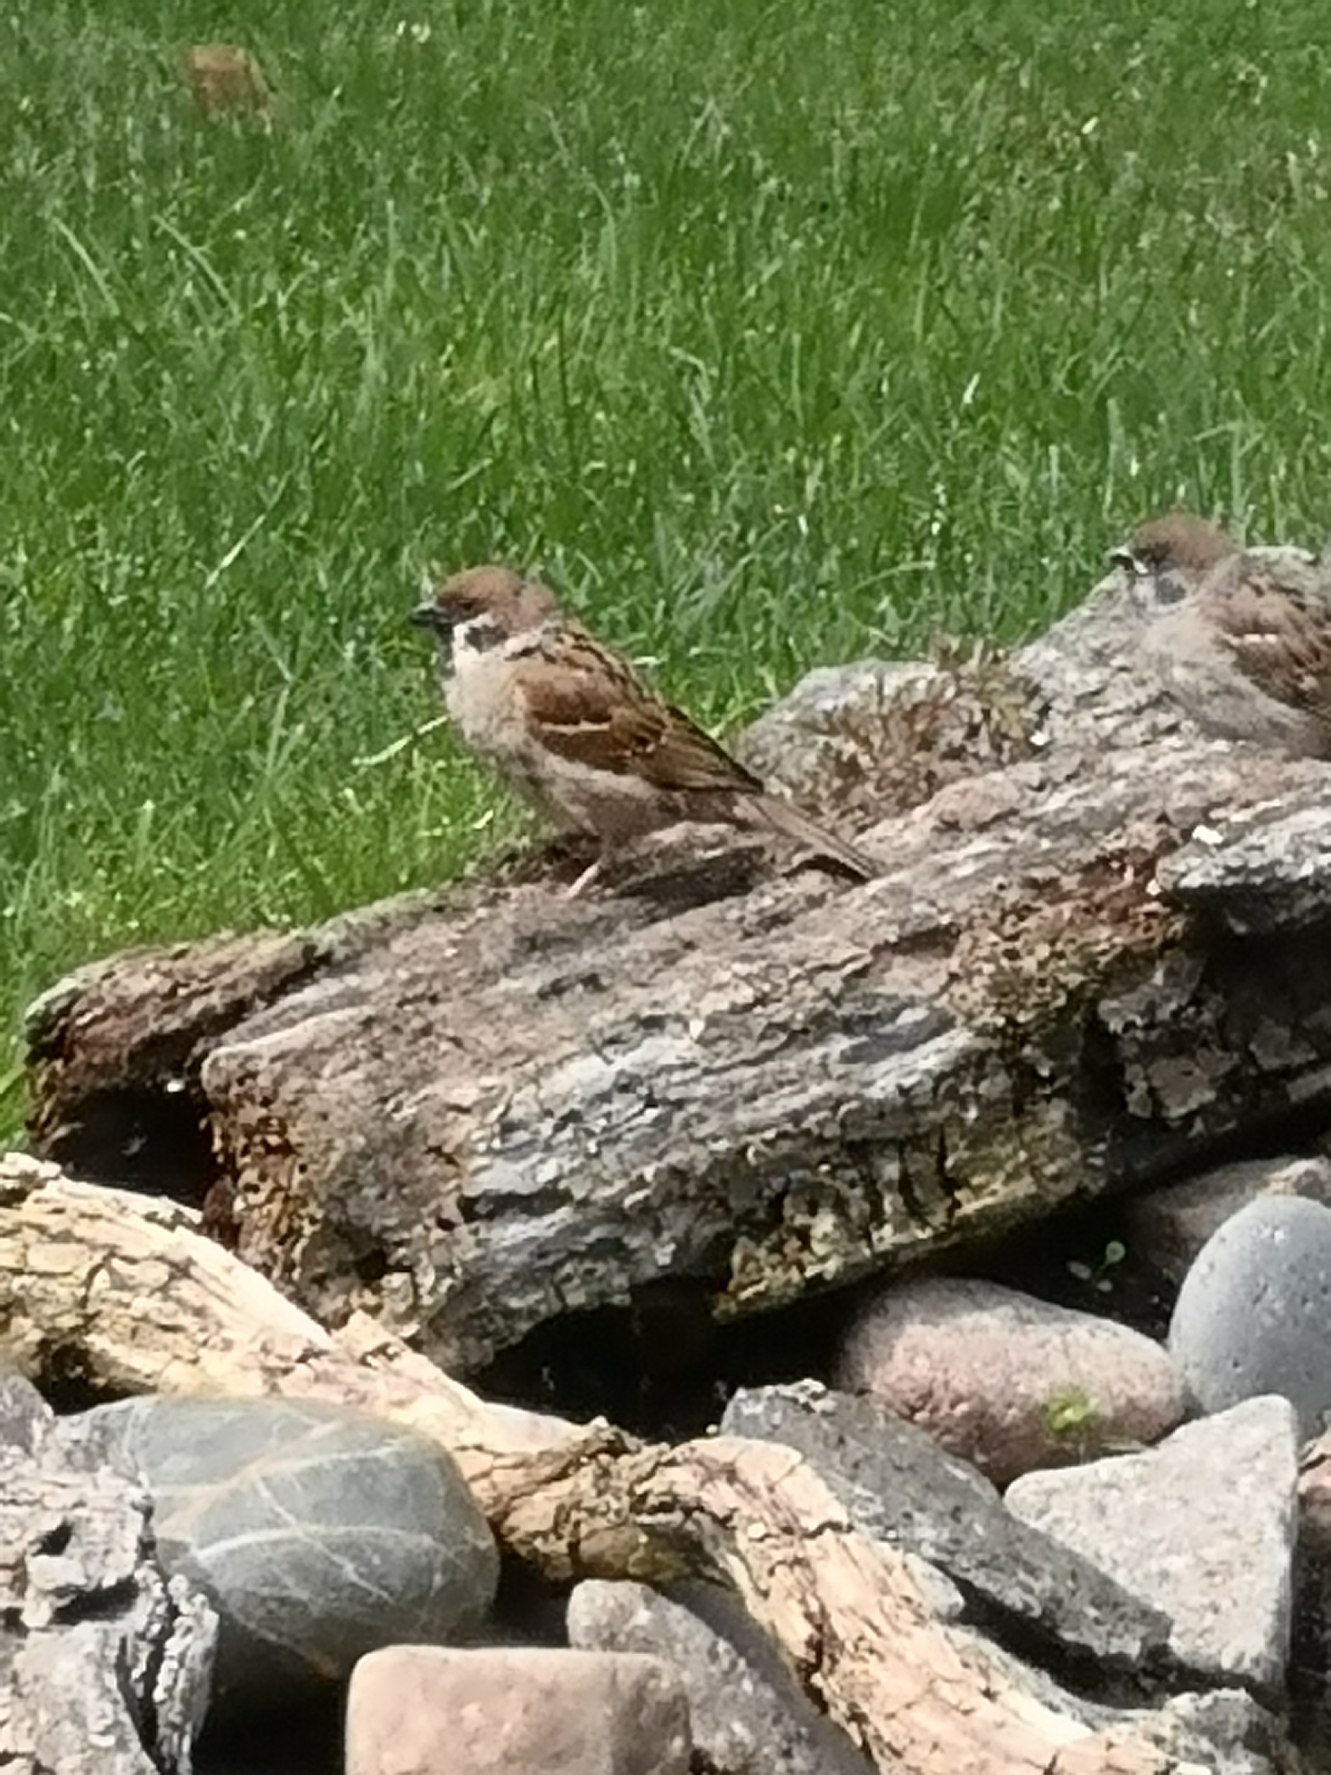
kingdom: Animalia
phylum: Chordata
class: Aves
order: Passeriformes
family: Passeridae
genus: Passer
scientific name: Passer montanus
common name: Skovspurv
